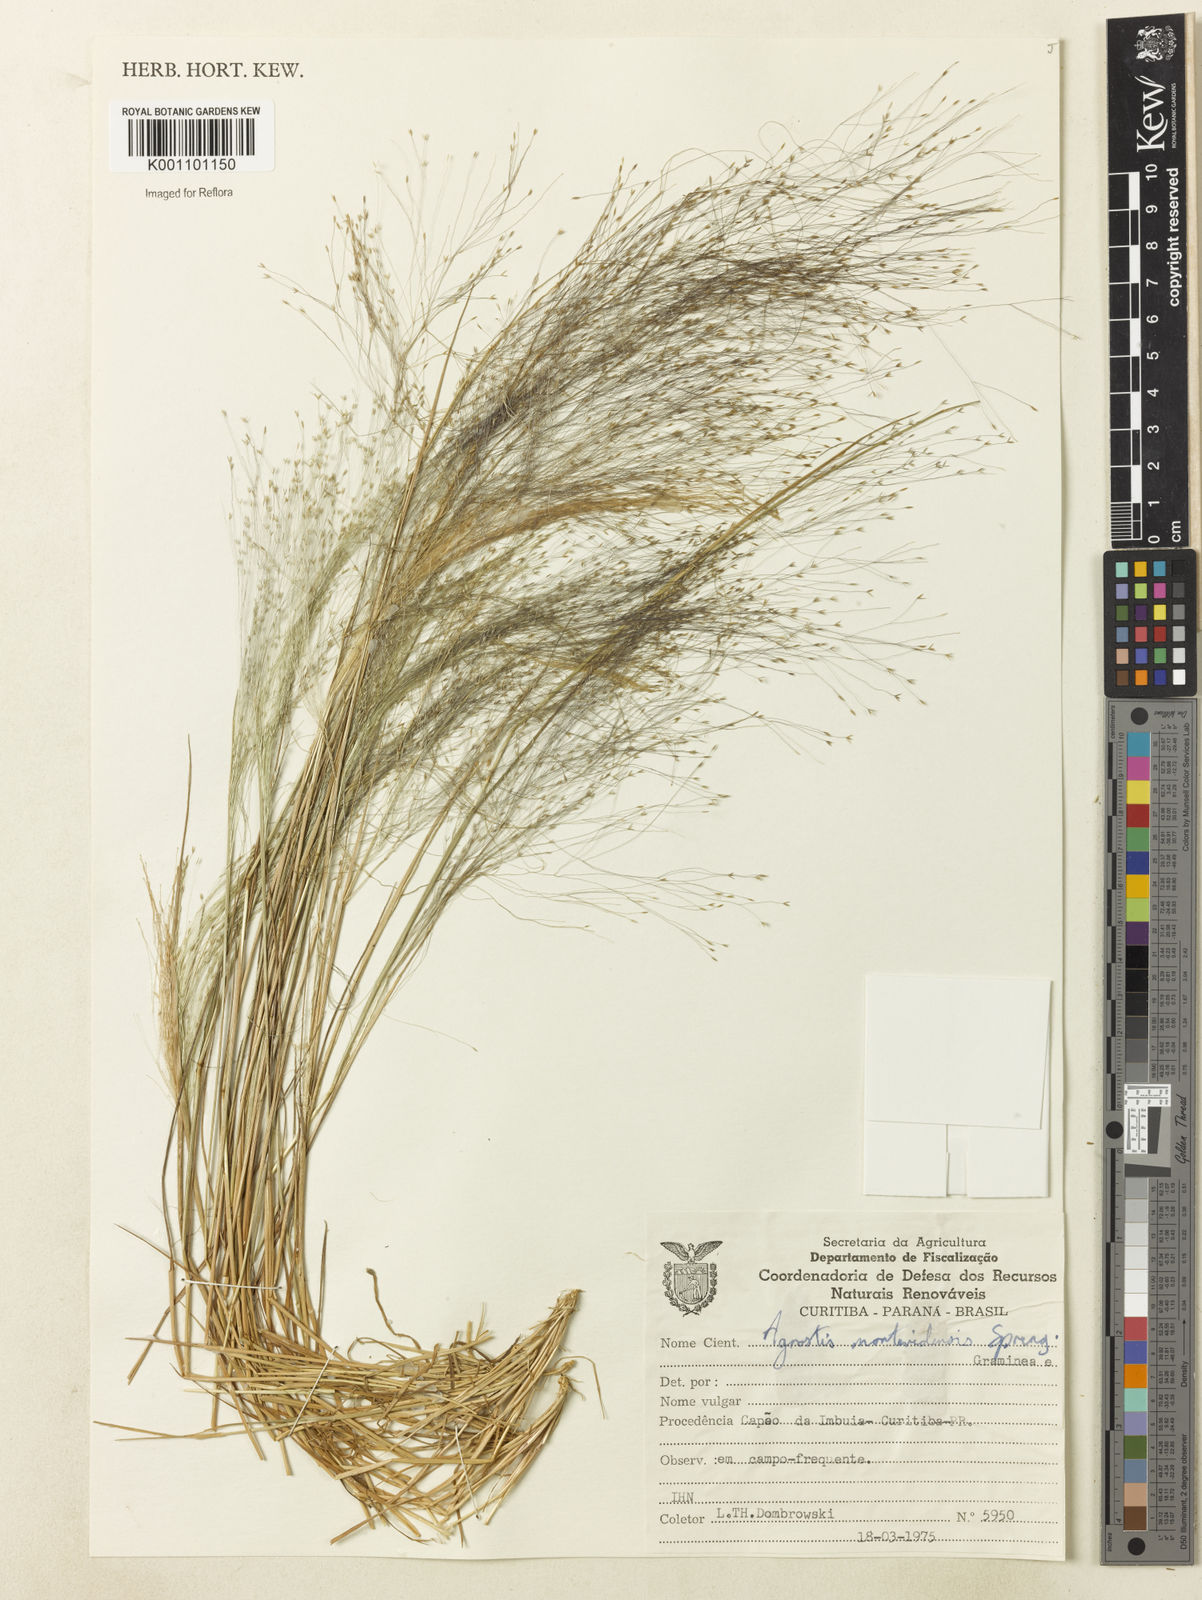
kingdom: Plantae
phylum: Tracheophyta
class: Liliopsida
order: Poales
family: Poaceae
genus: Agrostis
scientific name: Agrostis montevidensis
